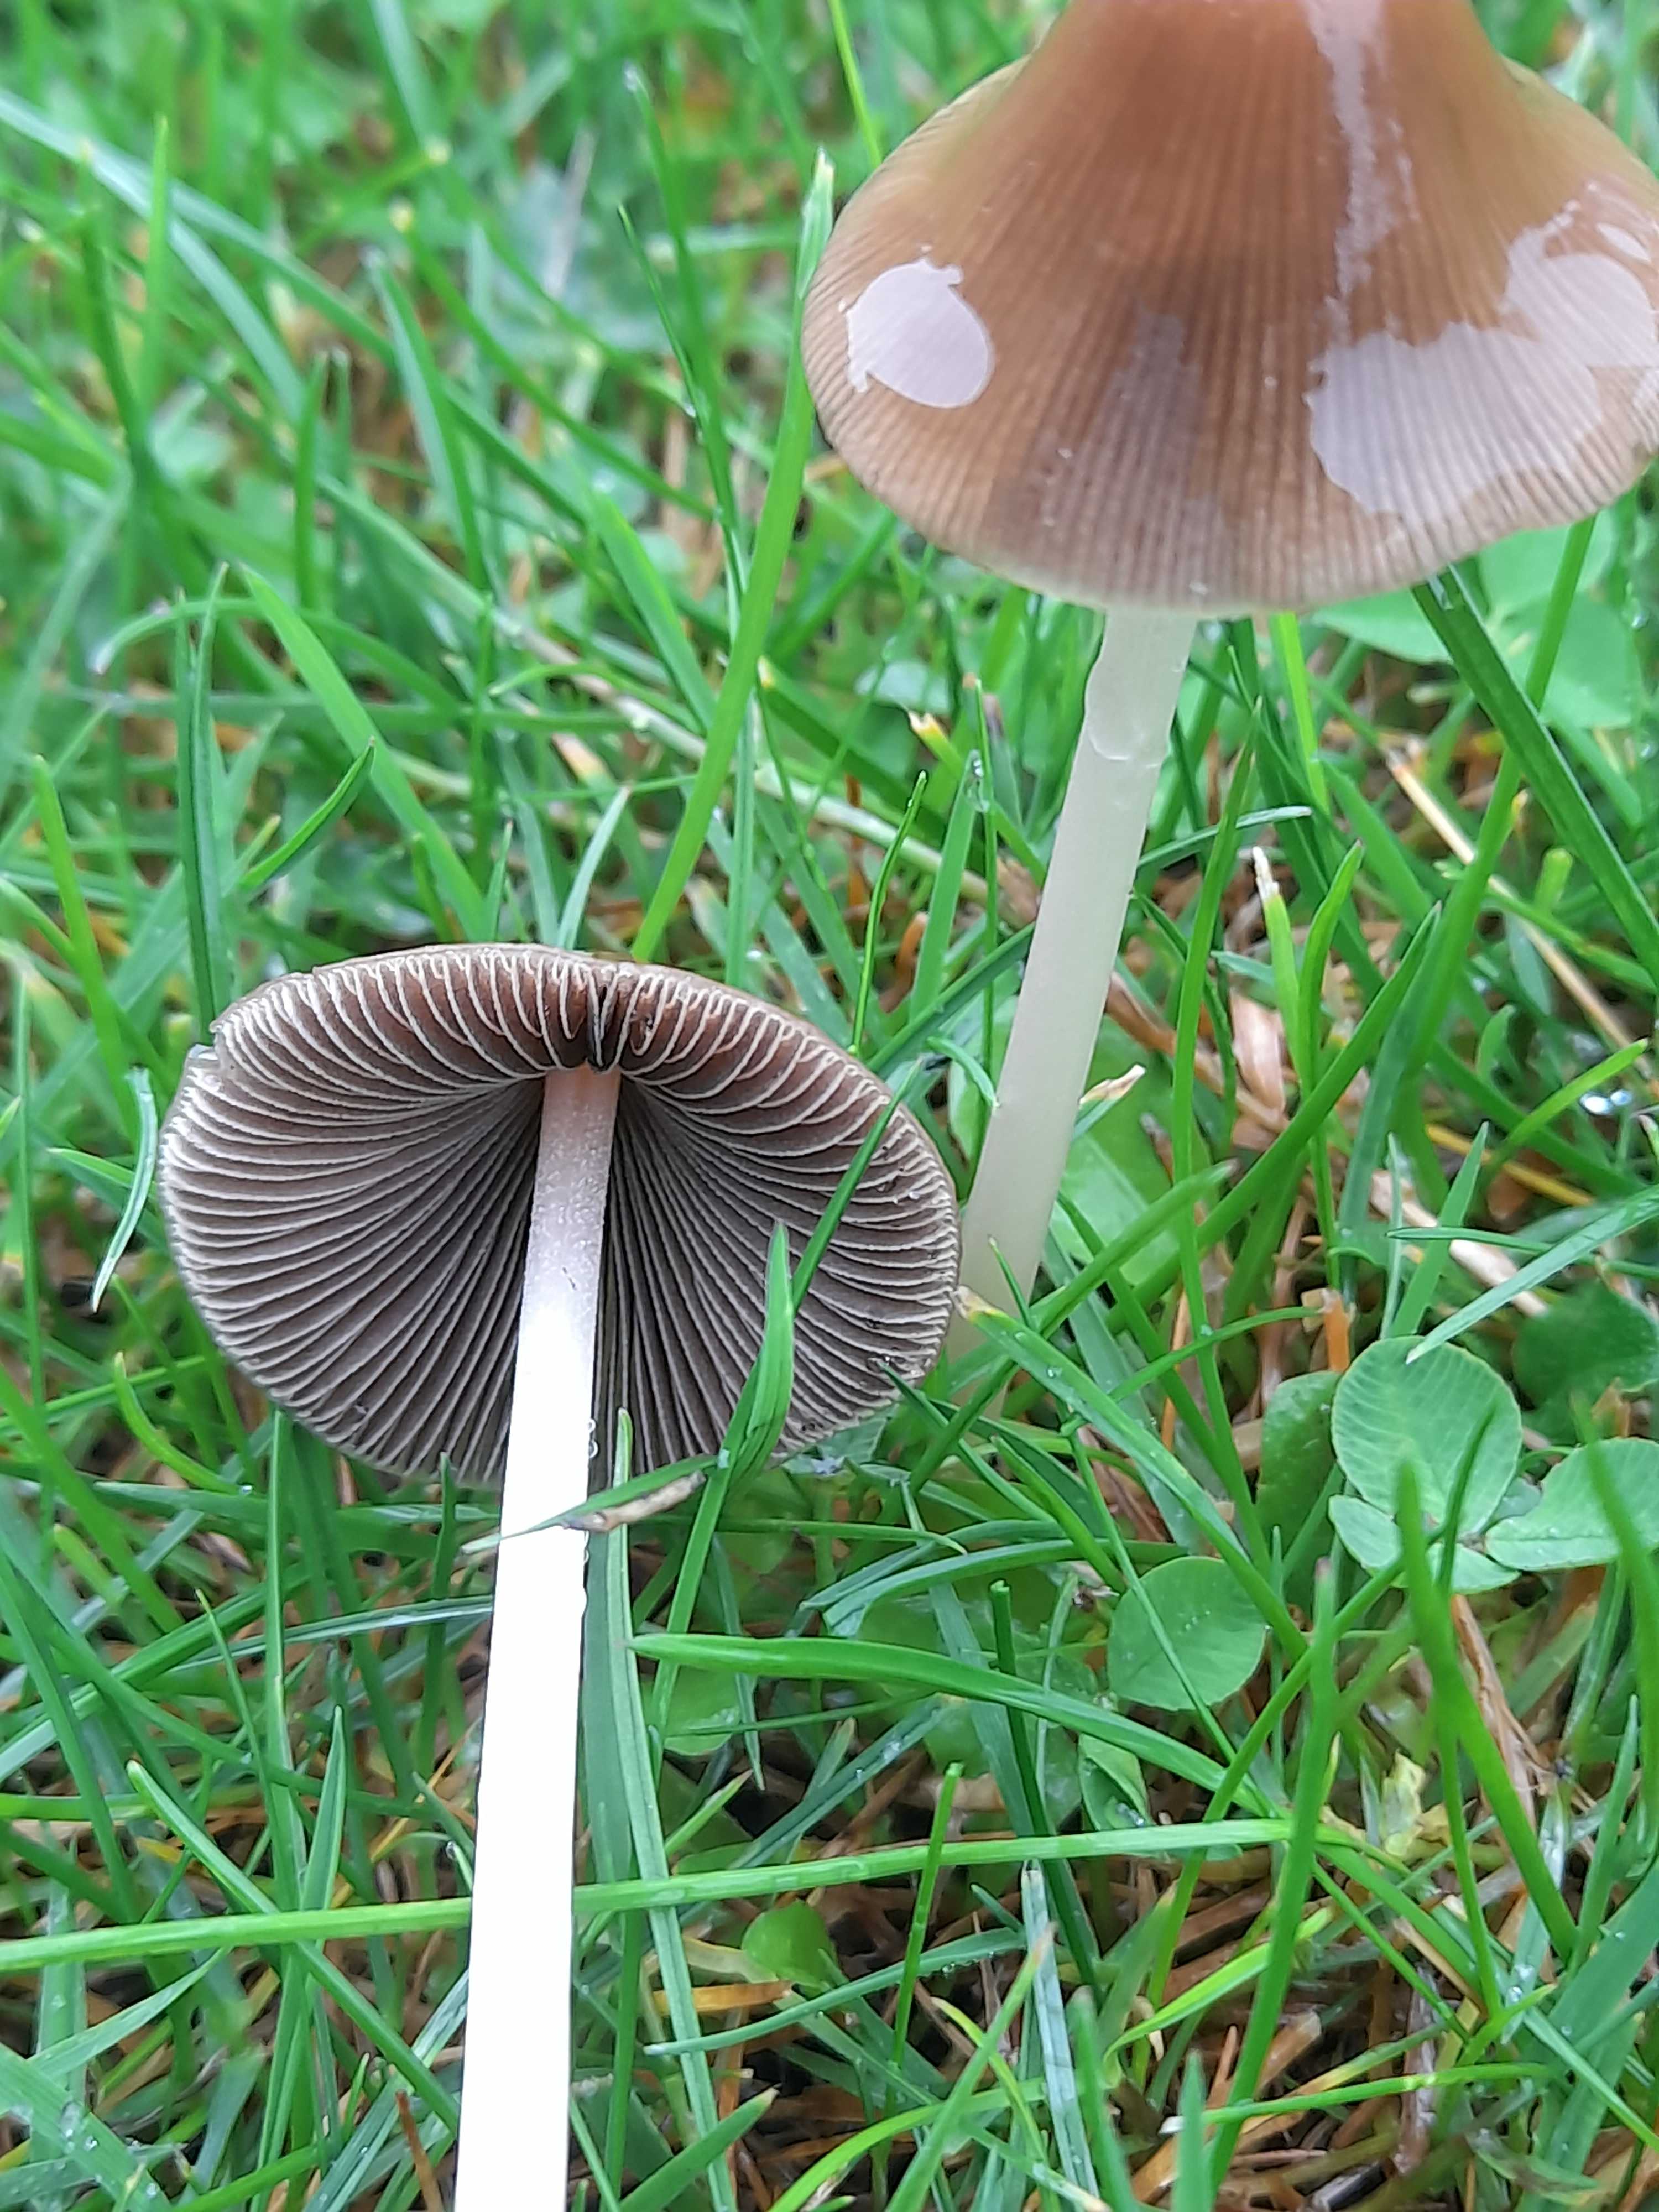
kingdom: Fungi
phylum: Basidiomycota
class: Agaricomycetes
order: Agaricales
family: Psathyrellaceae
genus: Parasola
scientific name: Parasola conopilea
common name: kegle-hjulhat
